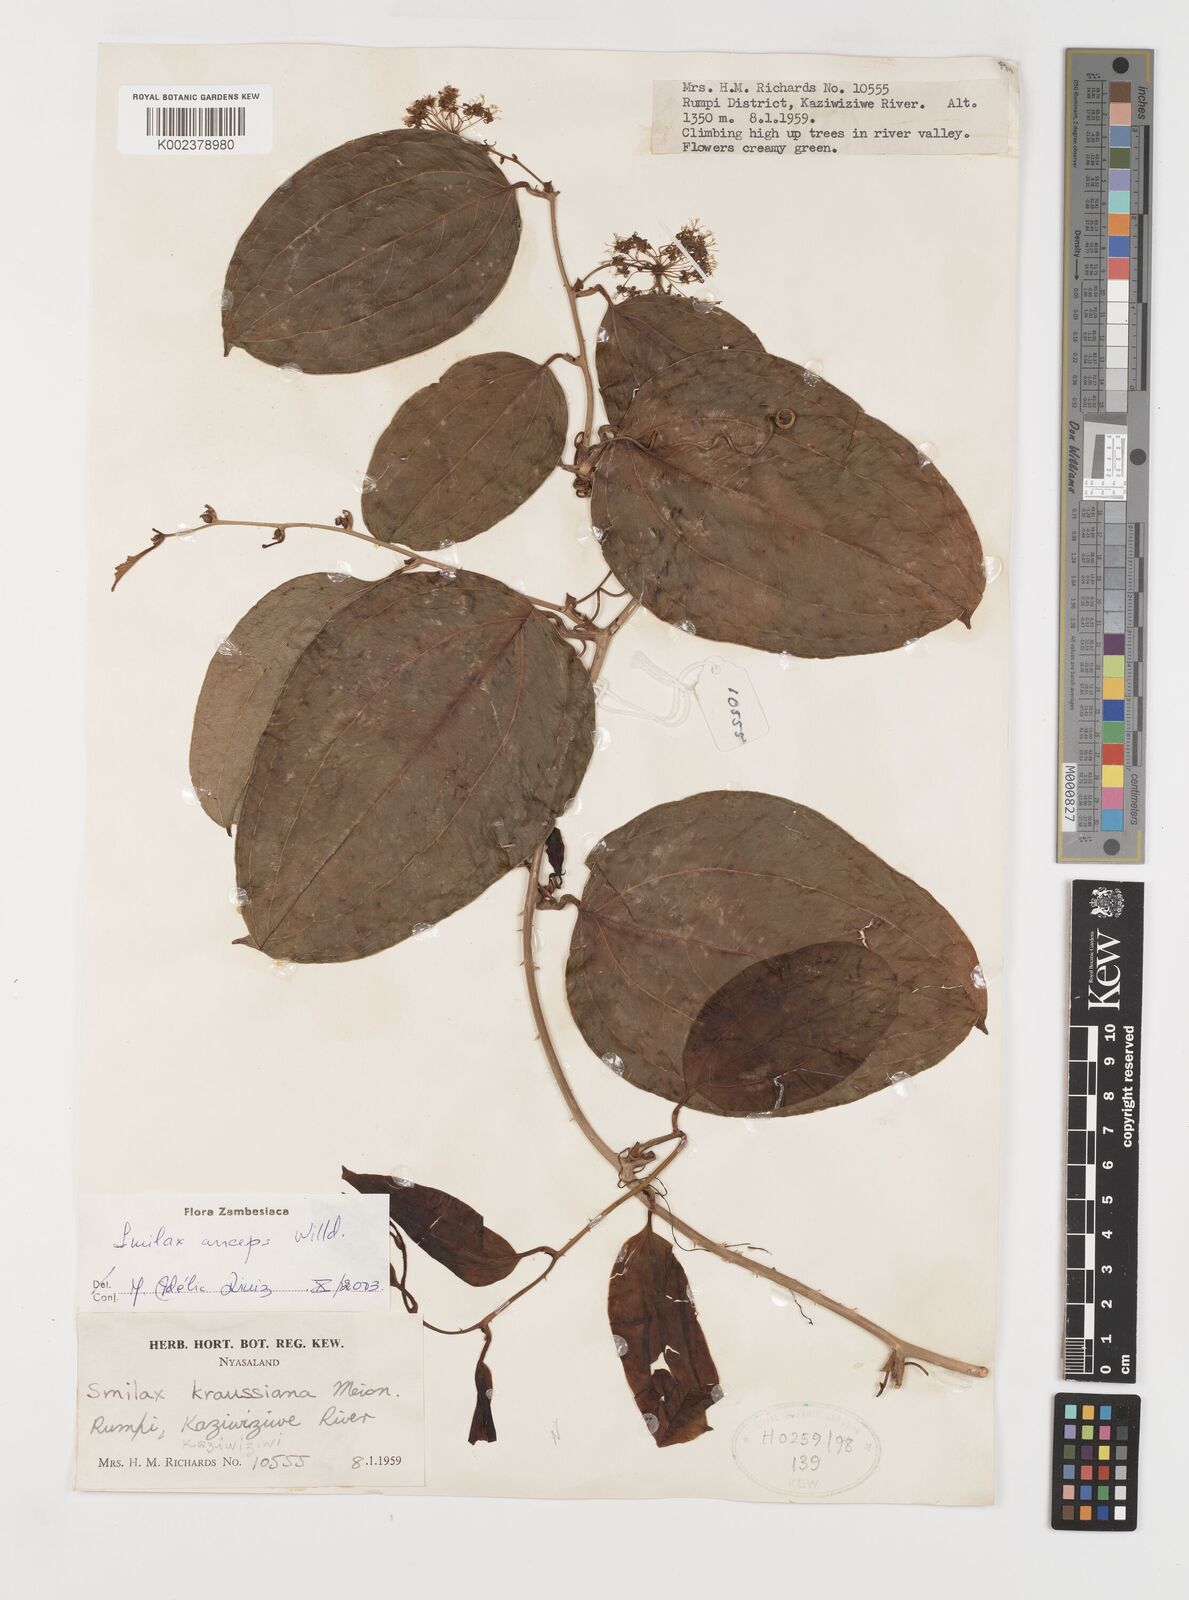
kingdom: Plantae
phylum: Tracheophyta
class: Liliopsida
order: Liliales
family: Smilacaceae
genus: Smilax
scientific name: Smilax anceps
